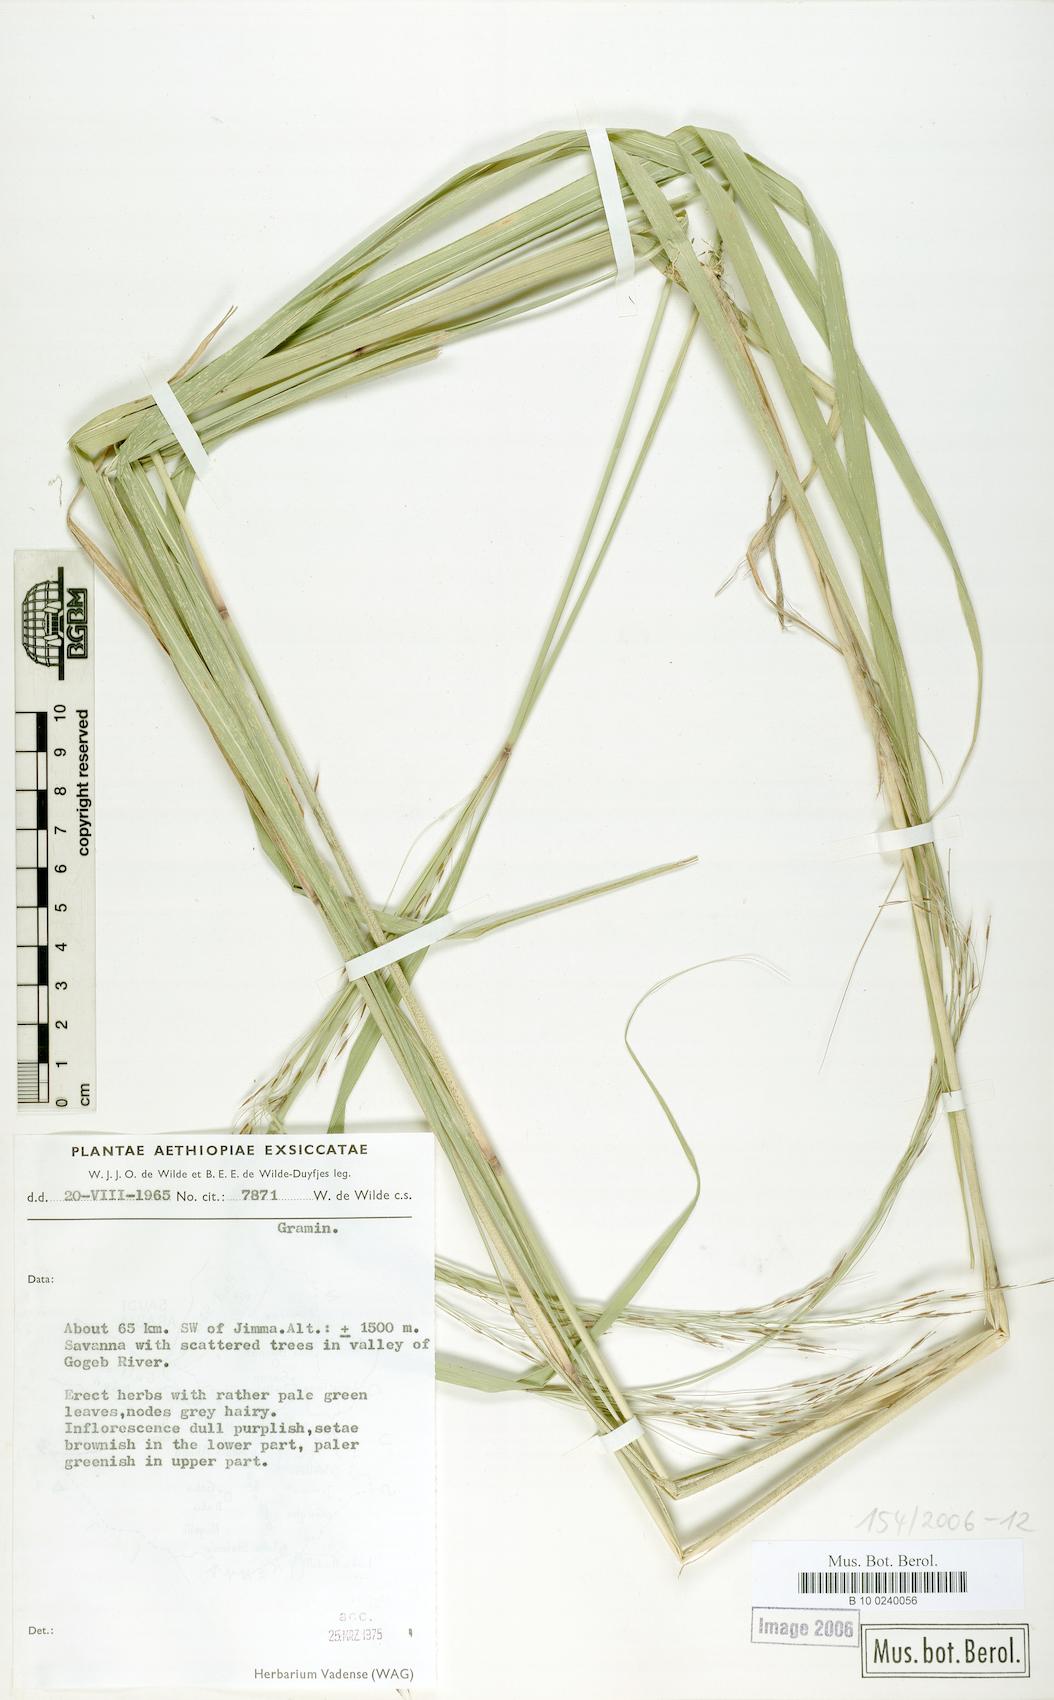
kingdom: Plantae
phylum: Tracheophyta
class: Liliopsida
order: Poales
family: Poaceae
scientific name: Poaceae
